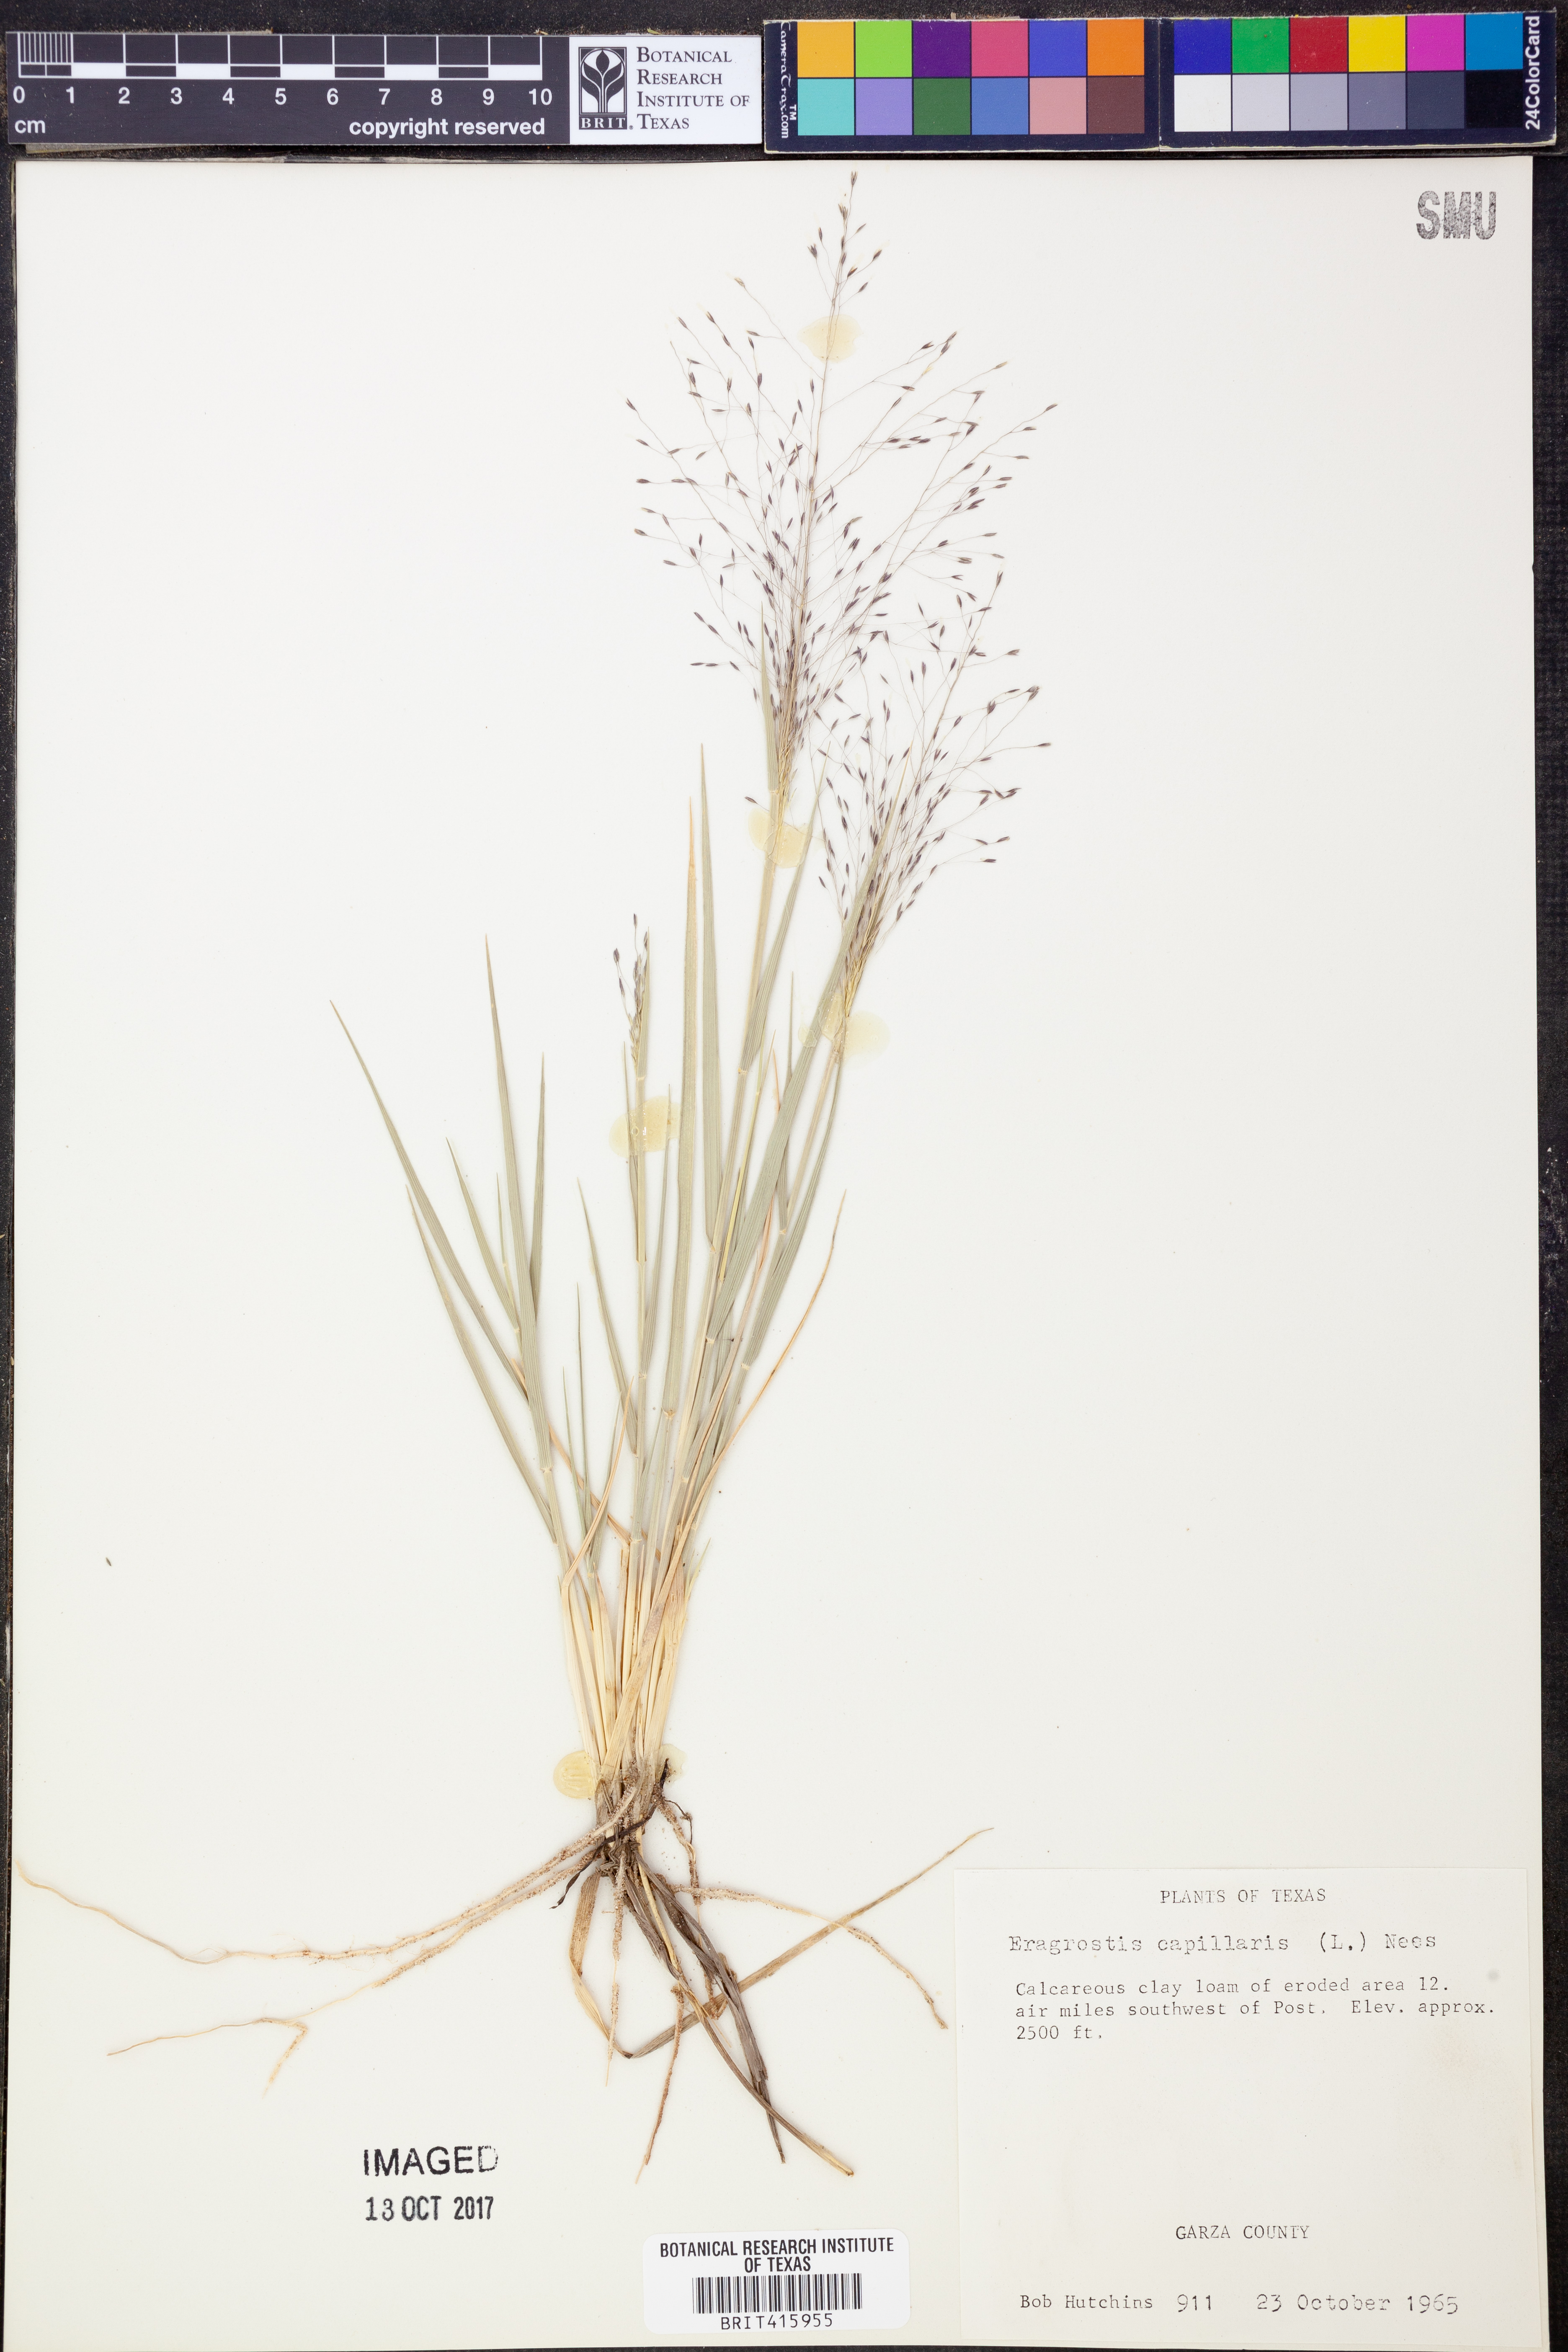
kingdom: Plantae
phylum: Tracheophyta
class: Liliopsida
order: Poales
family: Poaceae
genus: Eragrostis
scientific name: Eragrostis capillaris
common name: Hair-like lovegrass
